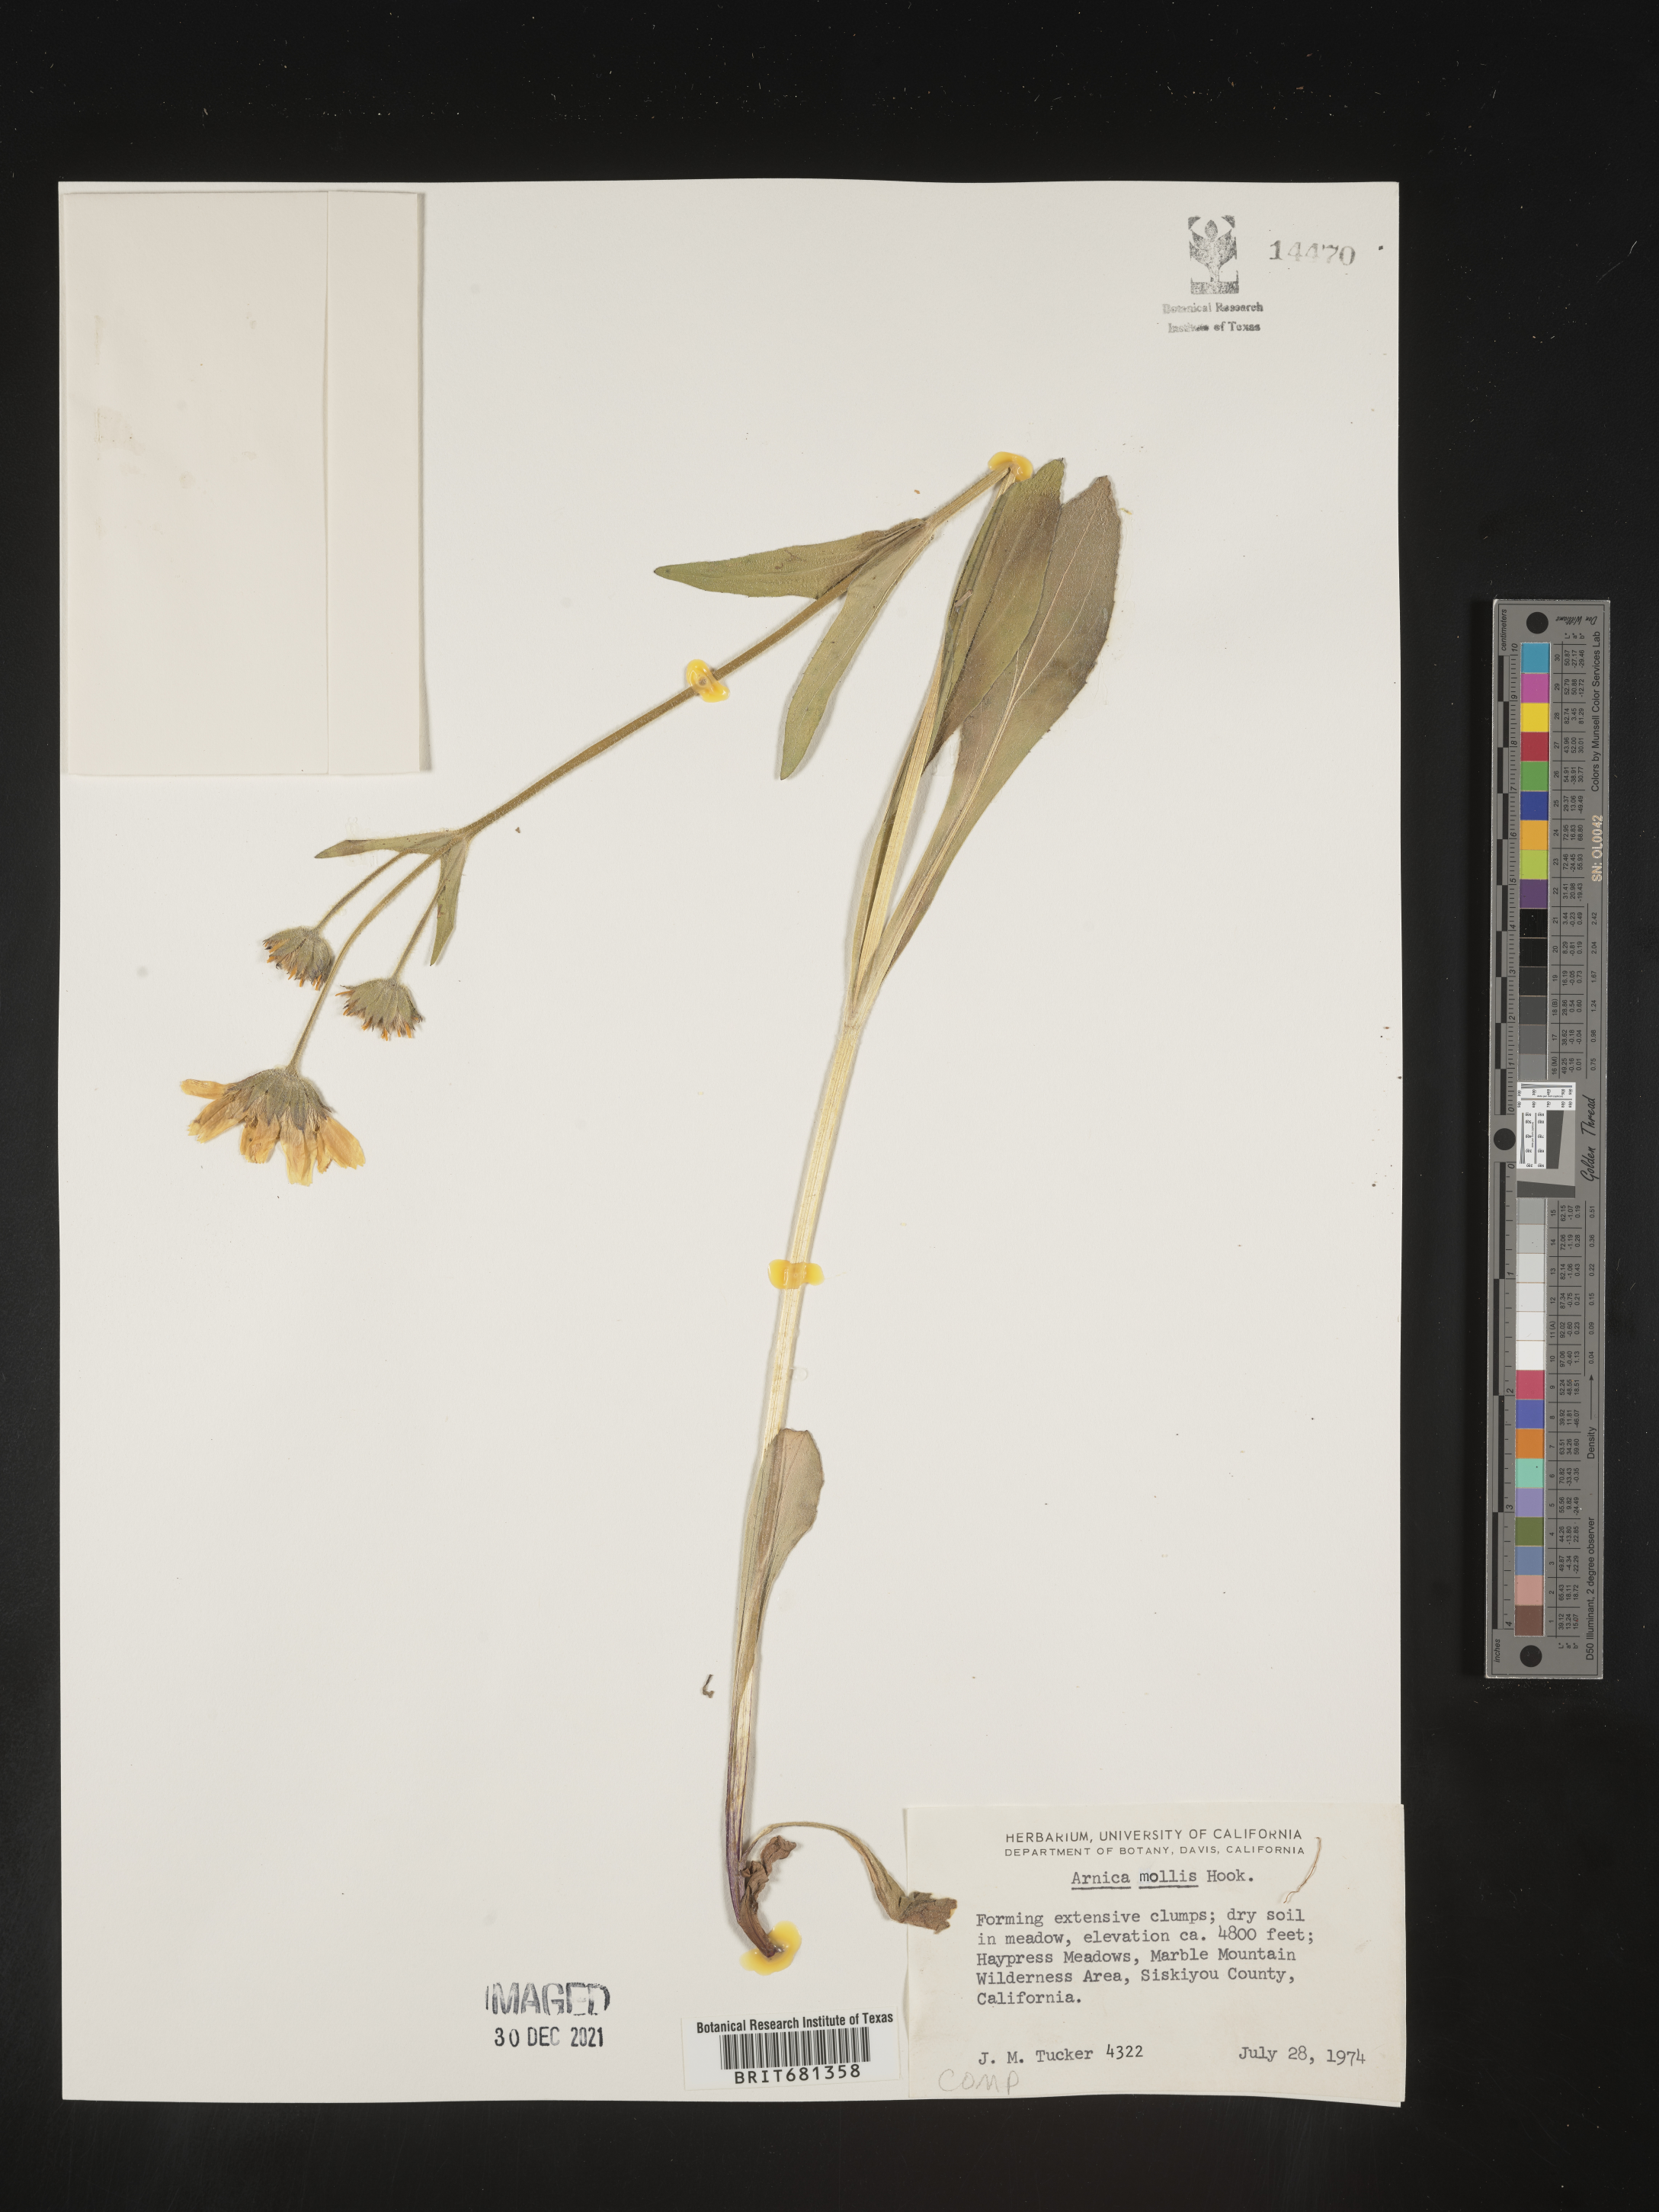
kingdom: Plantae
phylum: Tracheophyta
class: Magnoliopsida
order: Asterales
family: Asteraceae
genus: Arnica
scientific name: Arnica mollis
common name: Hairy arnica
